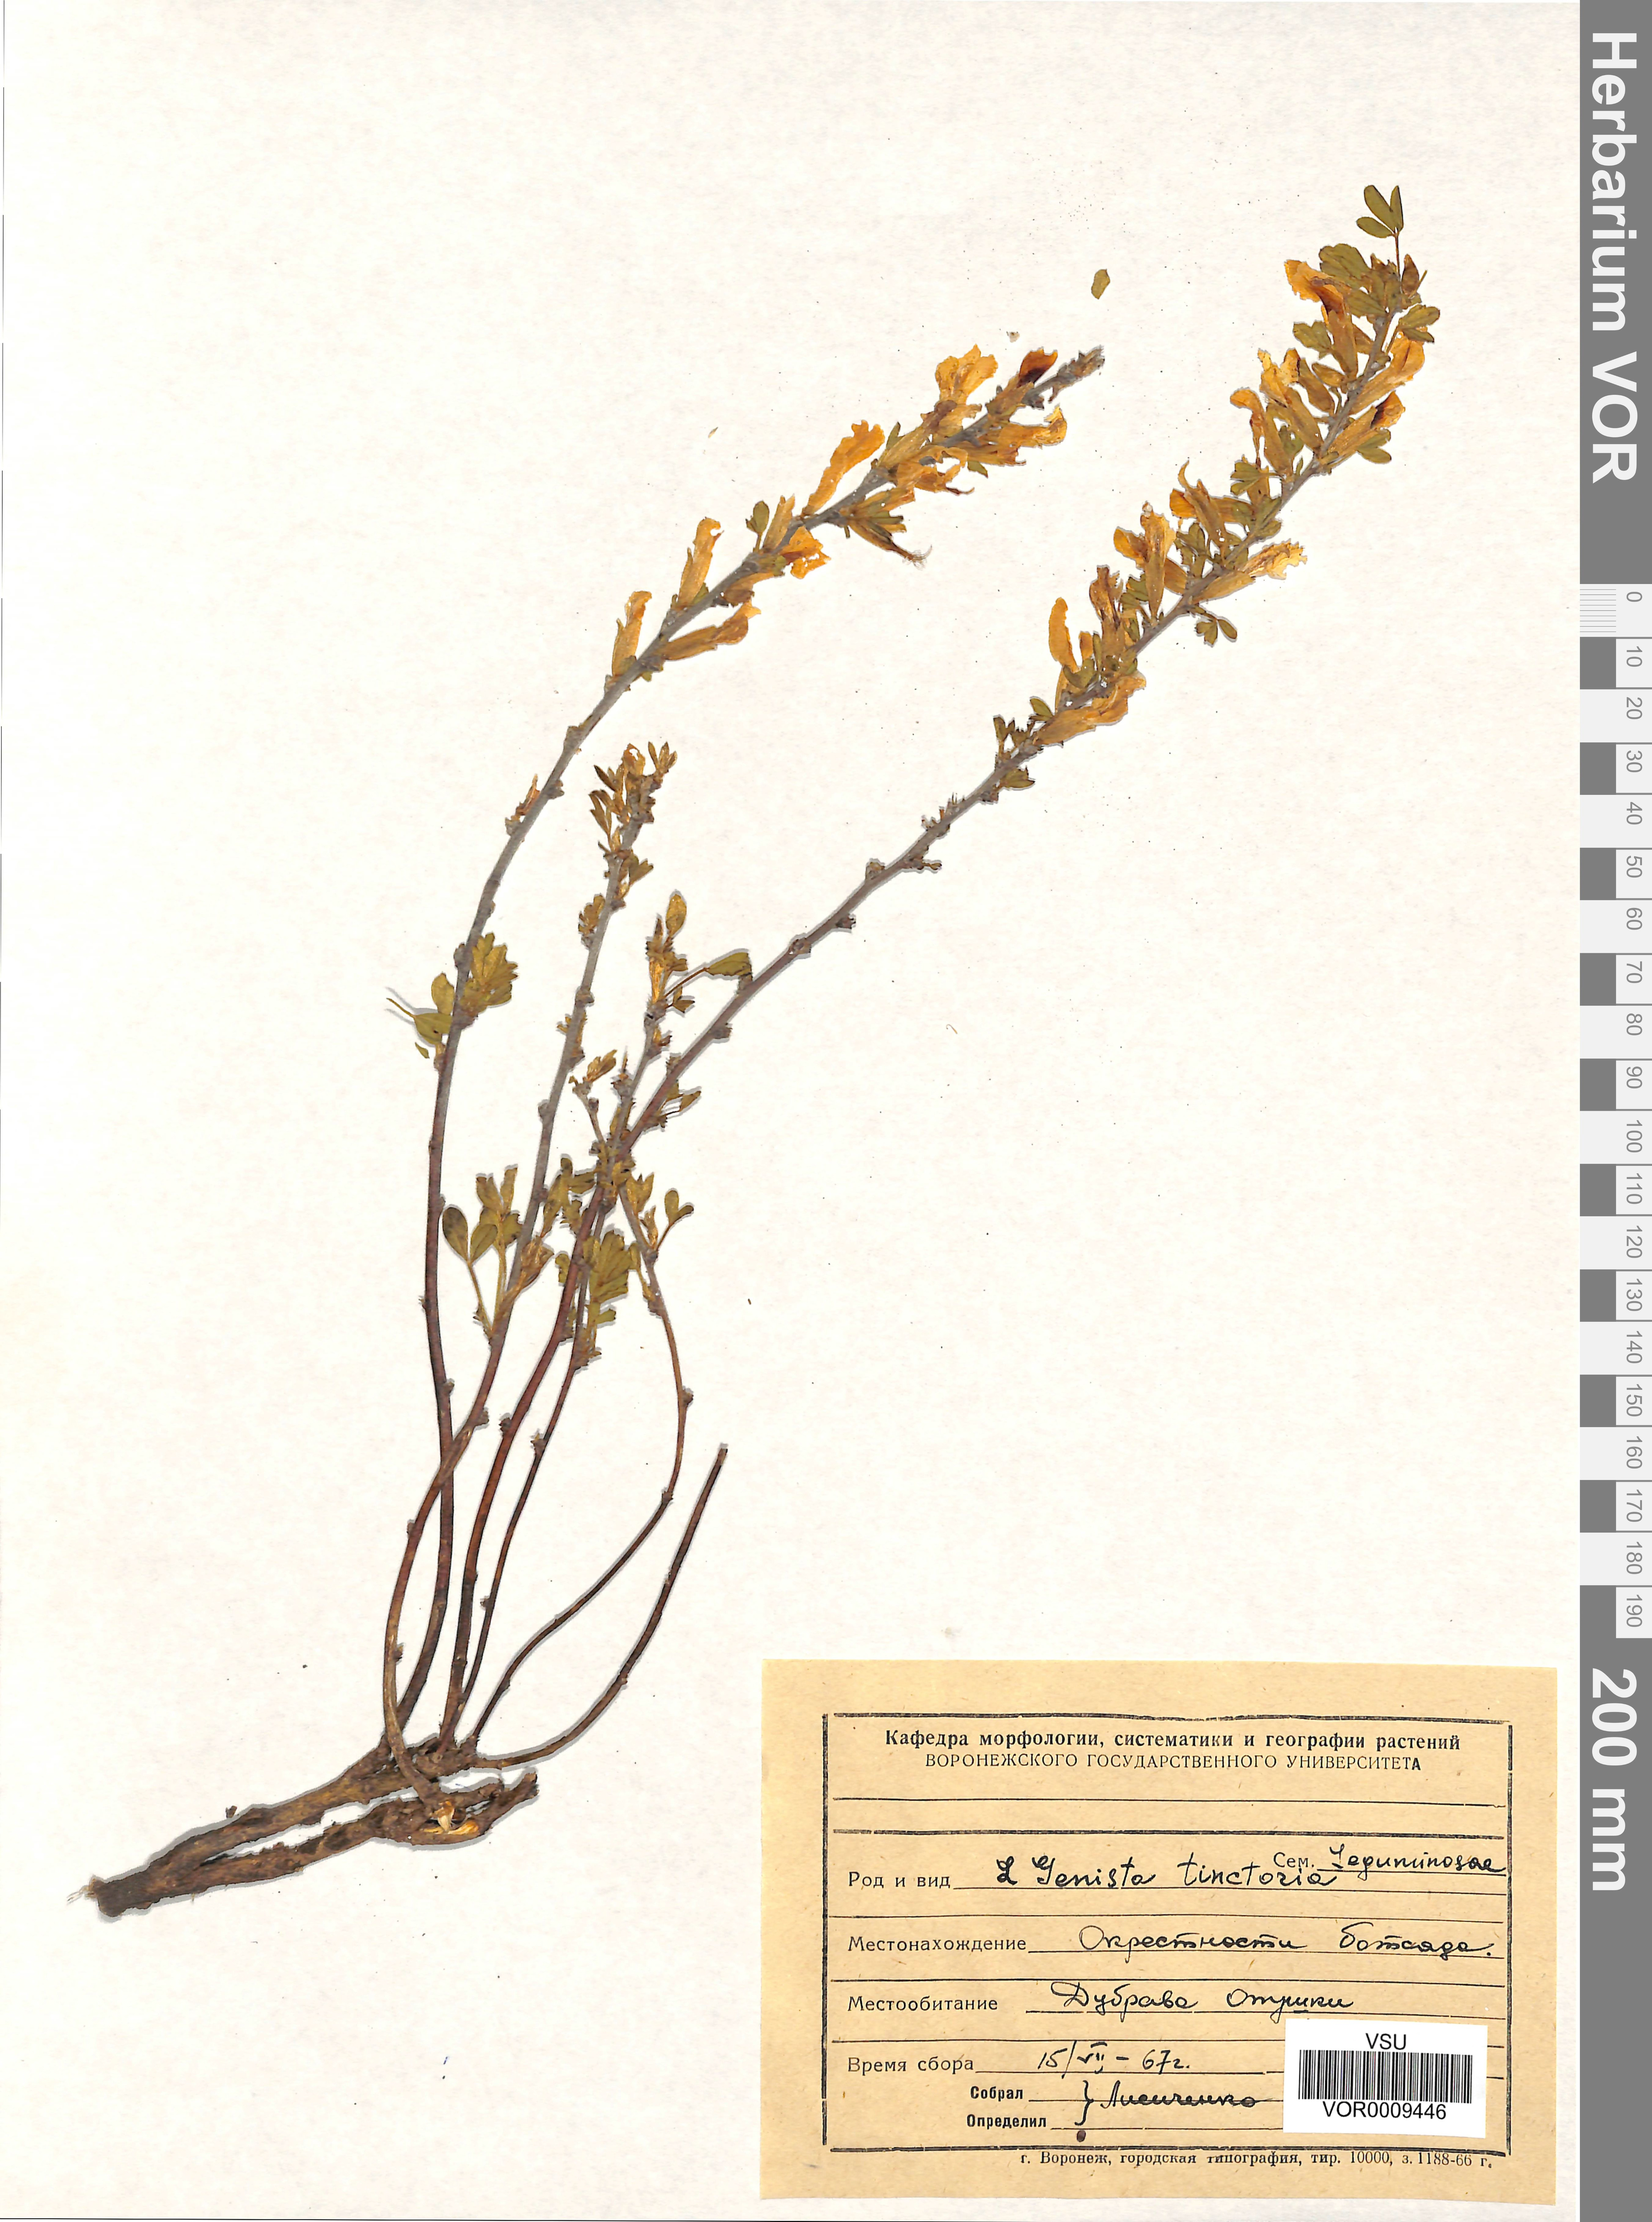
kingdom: Plantae
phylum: Tracheophyta
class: Magnoliopsida
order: Fabales
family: Fabaceae
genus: Genista
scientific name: Genista tinctoria
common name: Dyer's greenweed
